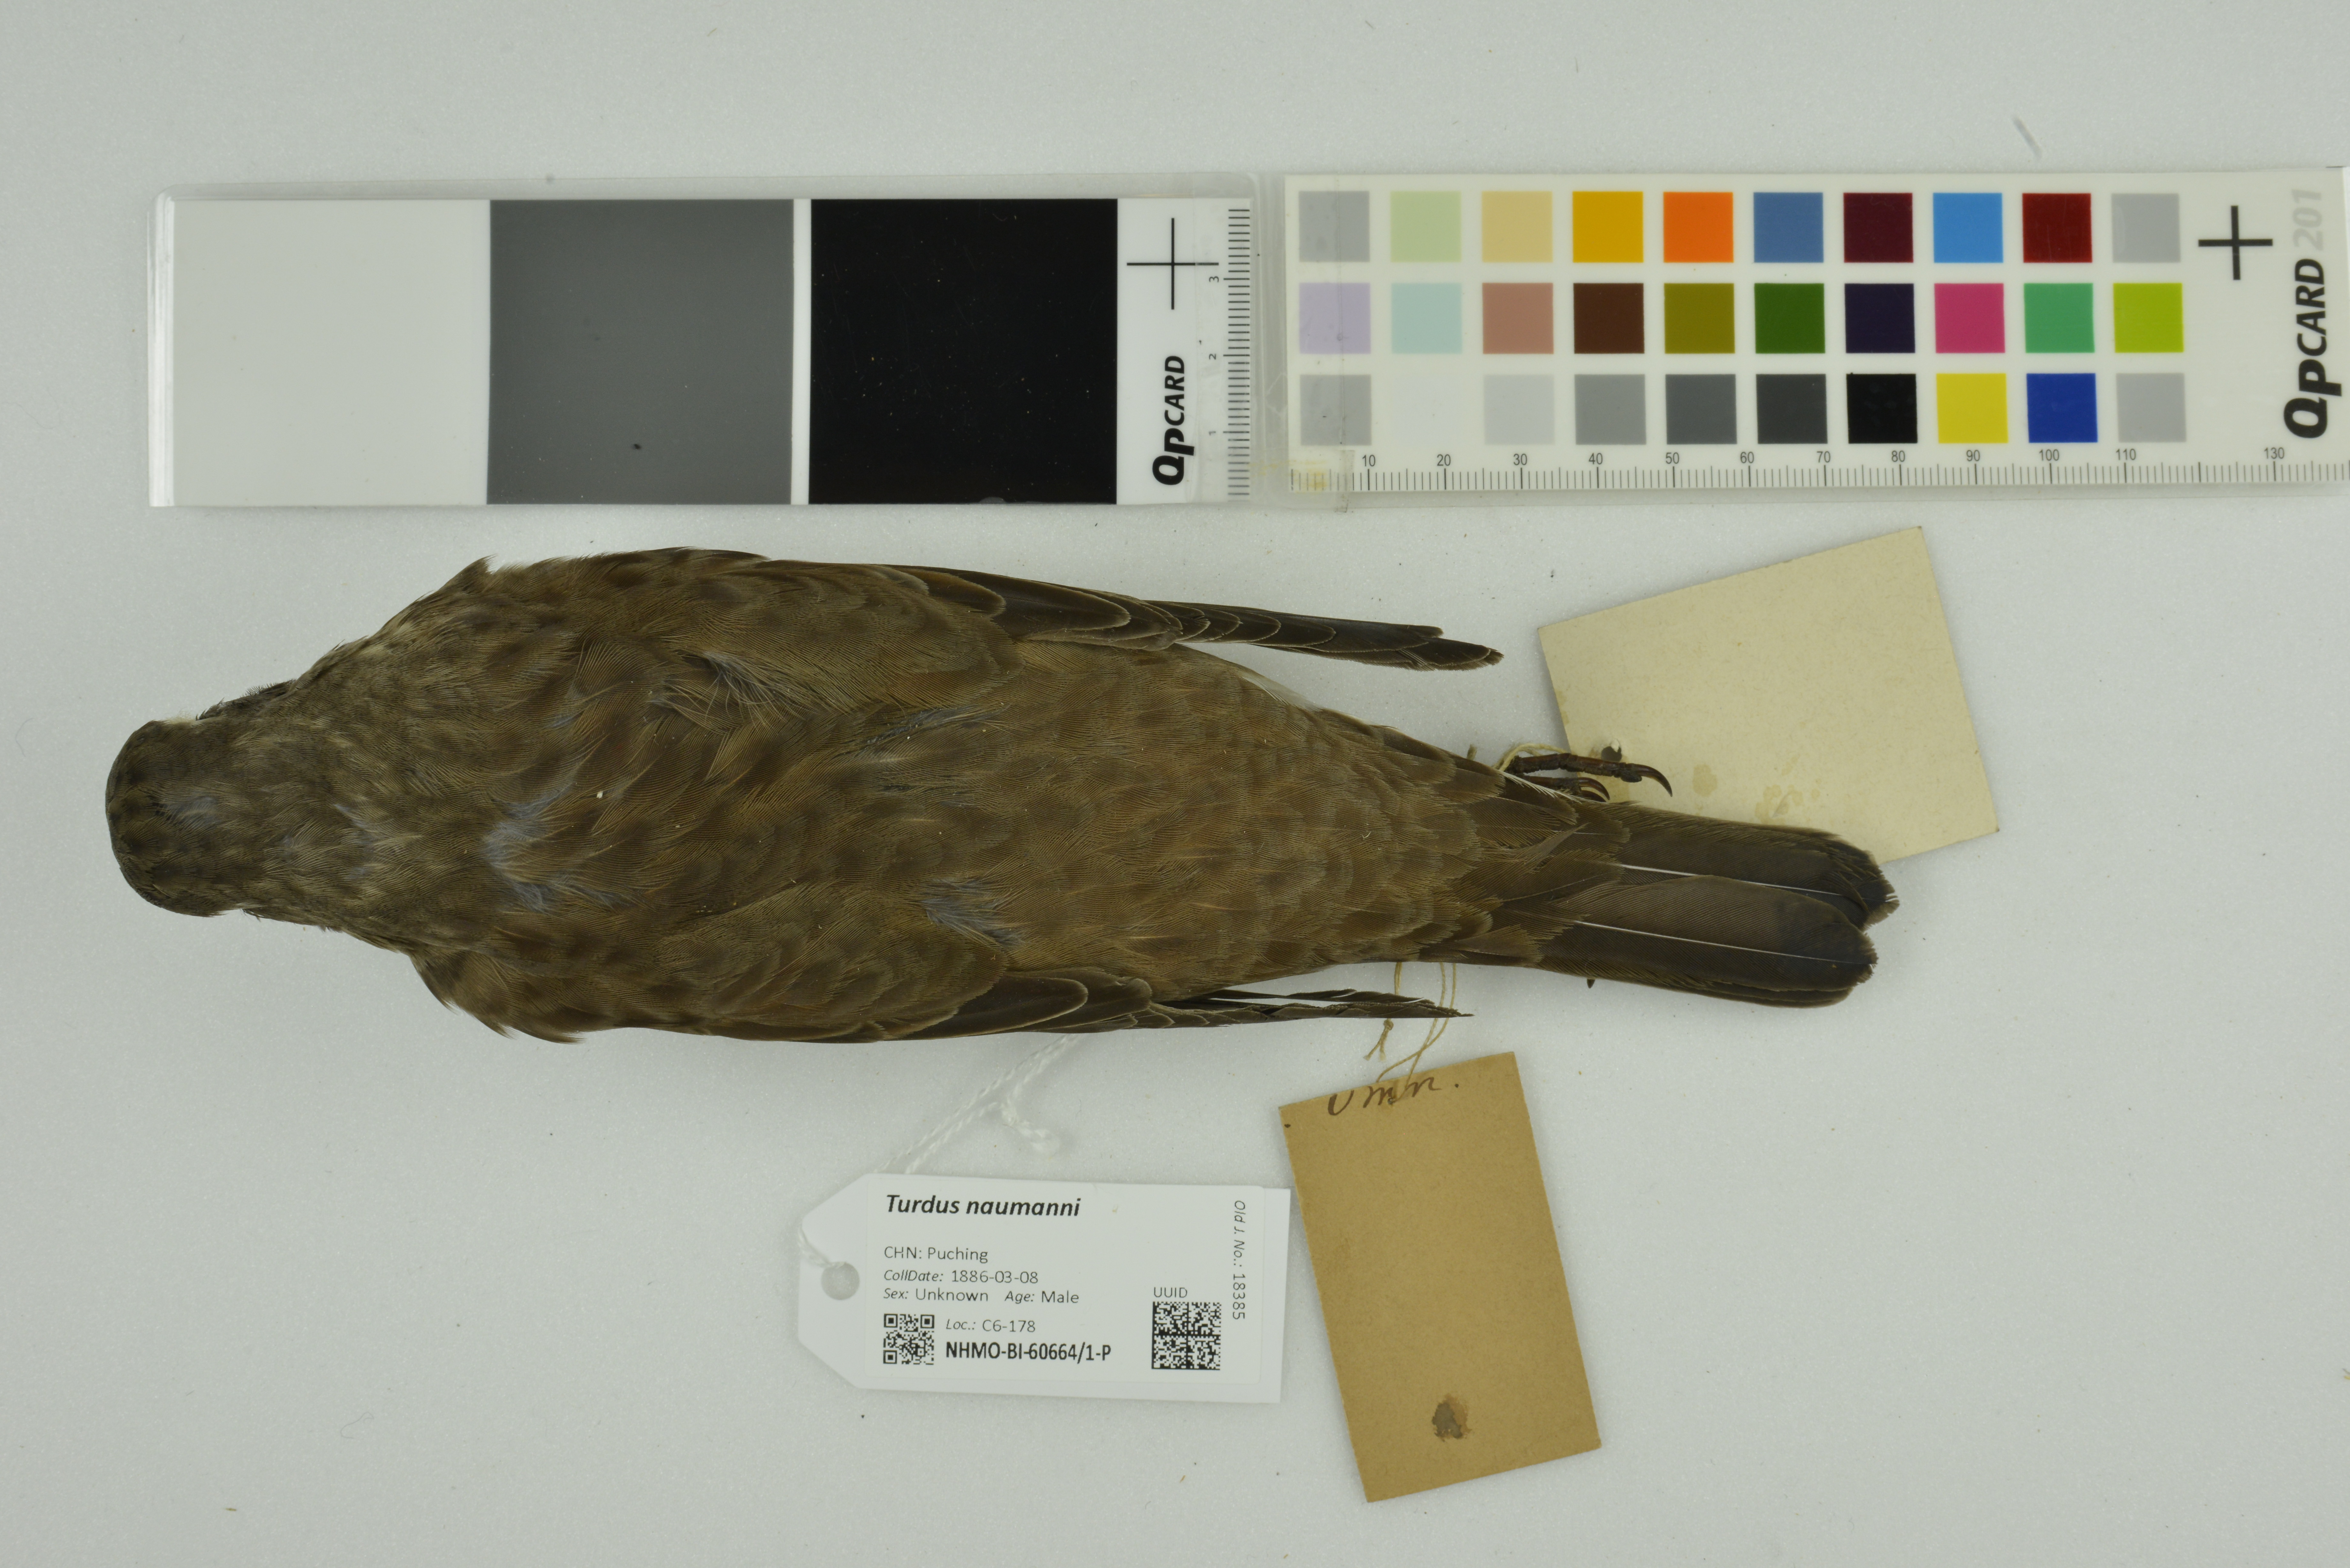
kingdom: Animalia
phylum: Chordata
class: Aves
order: Passeriformes
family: Turdidae
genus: Turdus
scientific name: Turdus naumanni
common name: Naumann's thrush
